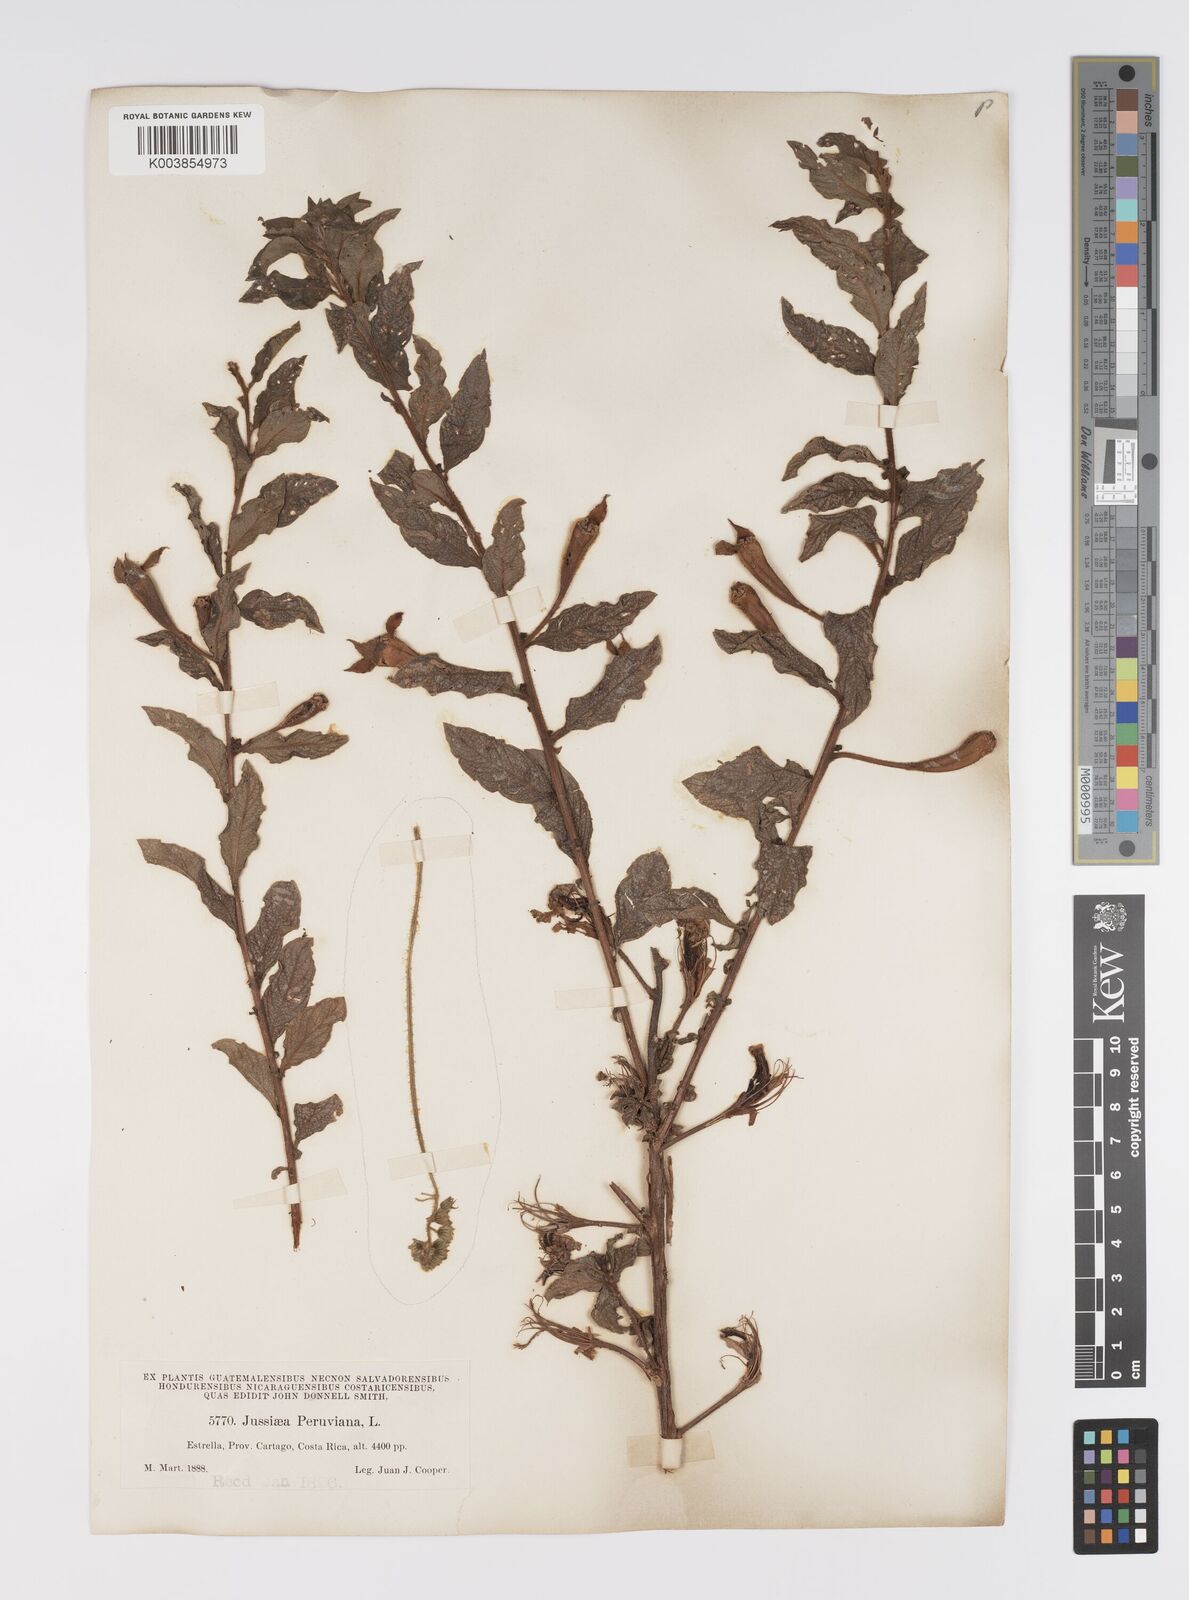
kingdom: Plantae
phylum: Tracheophyta
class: Magnoliopsida
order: Myrtales
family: Onagraceae
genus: Ludwigia
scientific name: Ludwigia peruviana
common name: Peruvian primrose-willow
